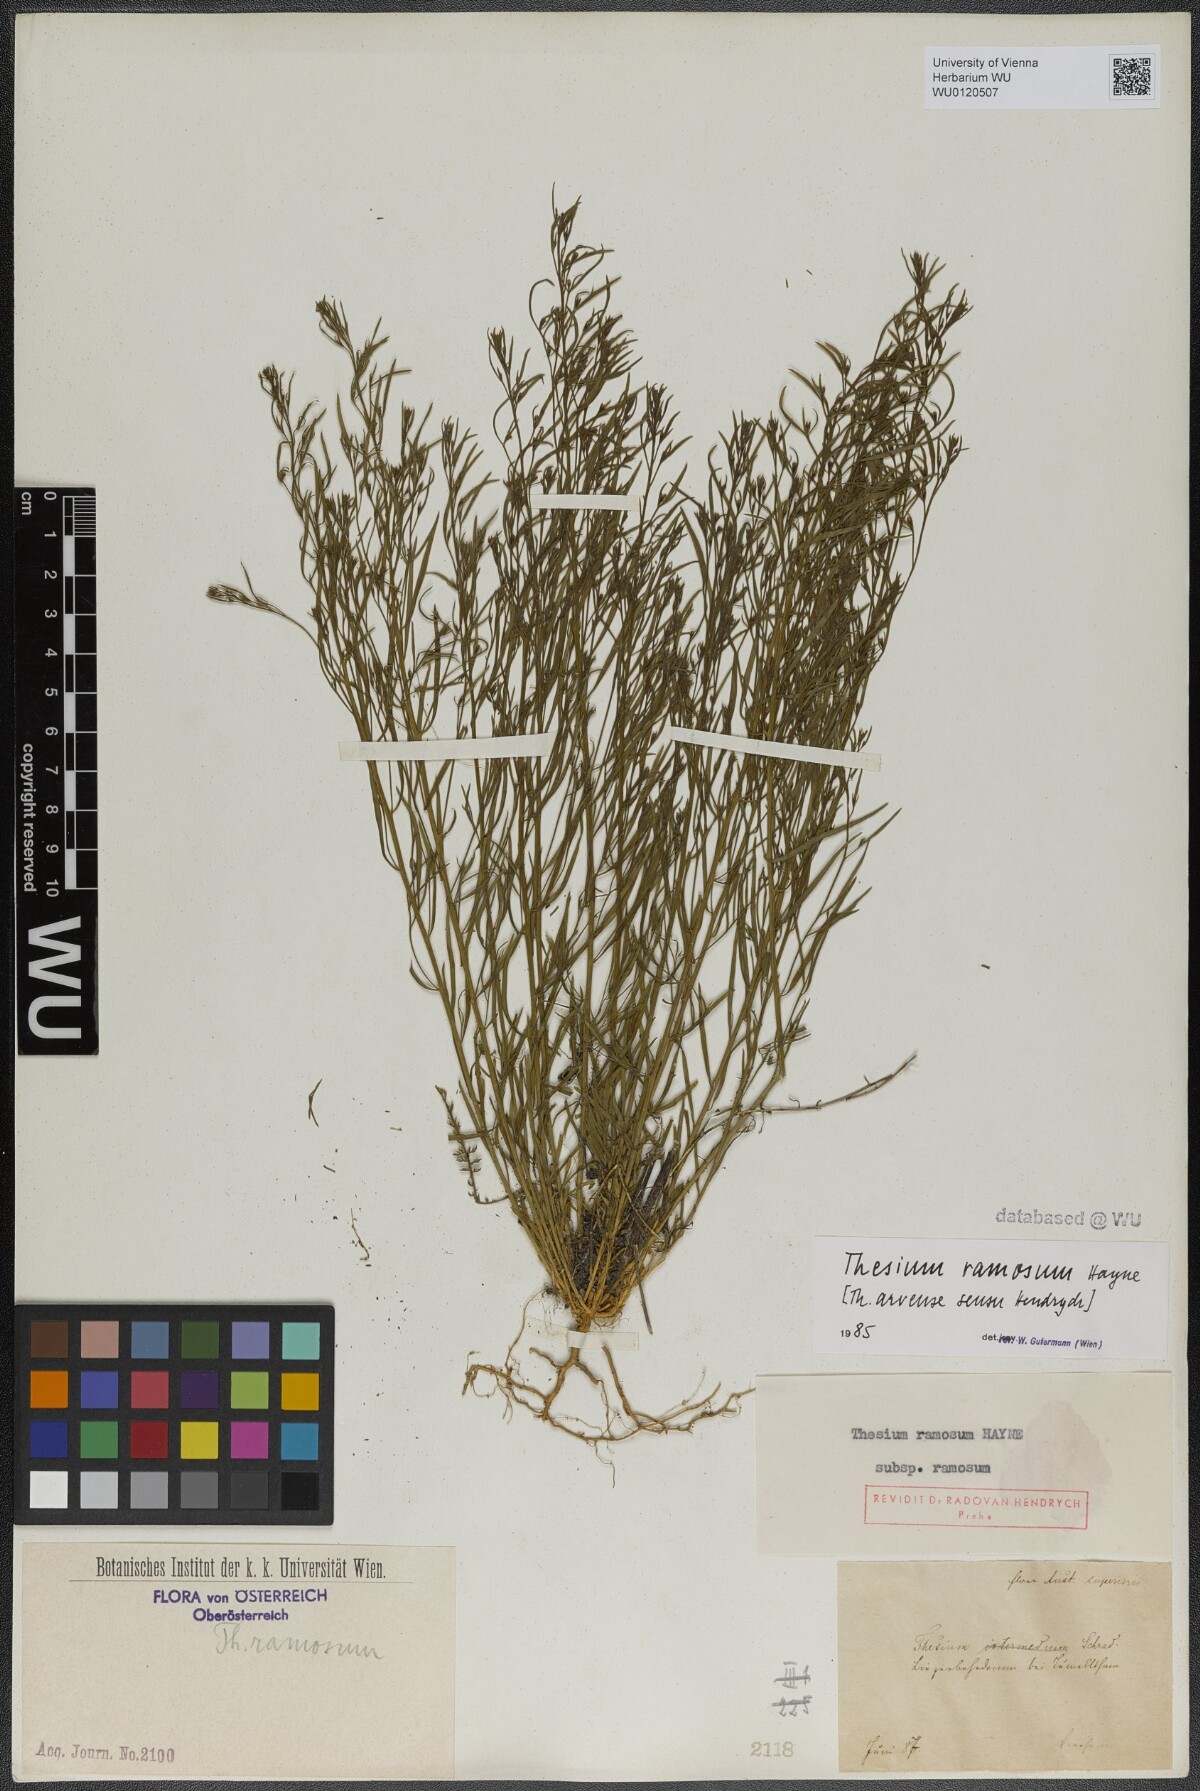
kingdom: Plantae
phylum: Tracheophyta
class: Magnoliopsida
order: Santalales
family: Thesiaceae
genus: Thesium
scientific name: Thesium ramosum
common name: Field thesium
